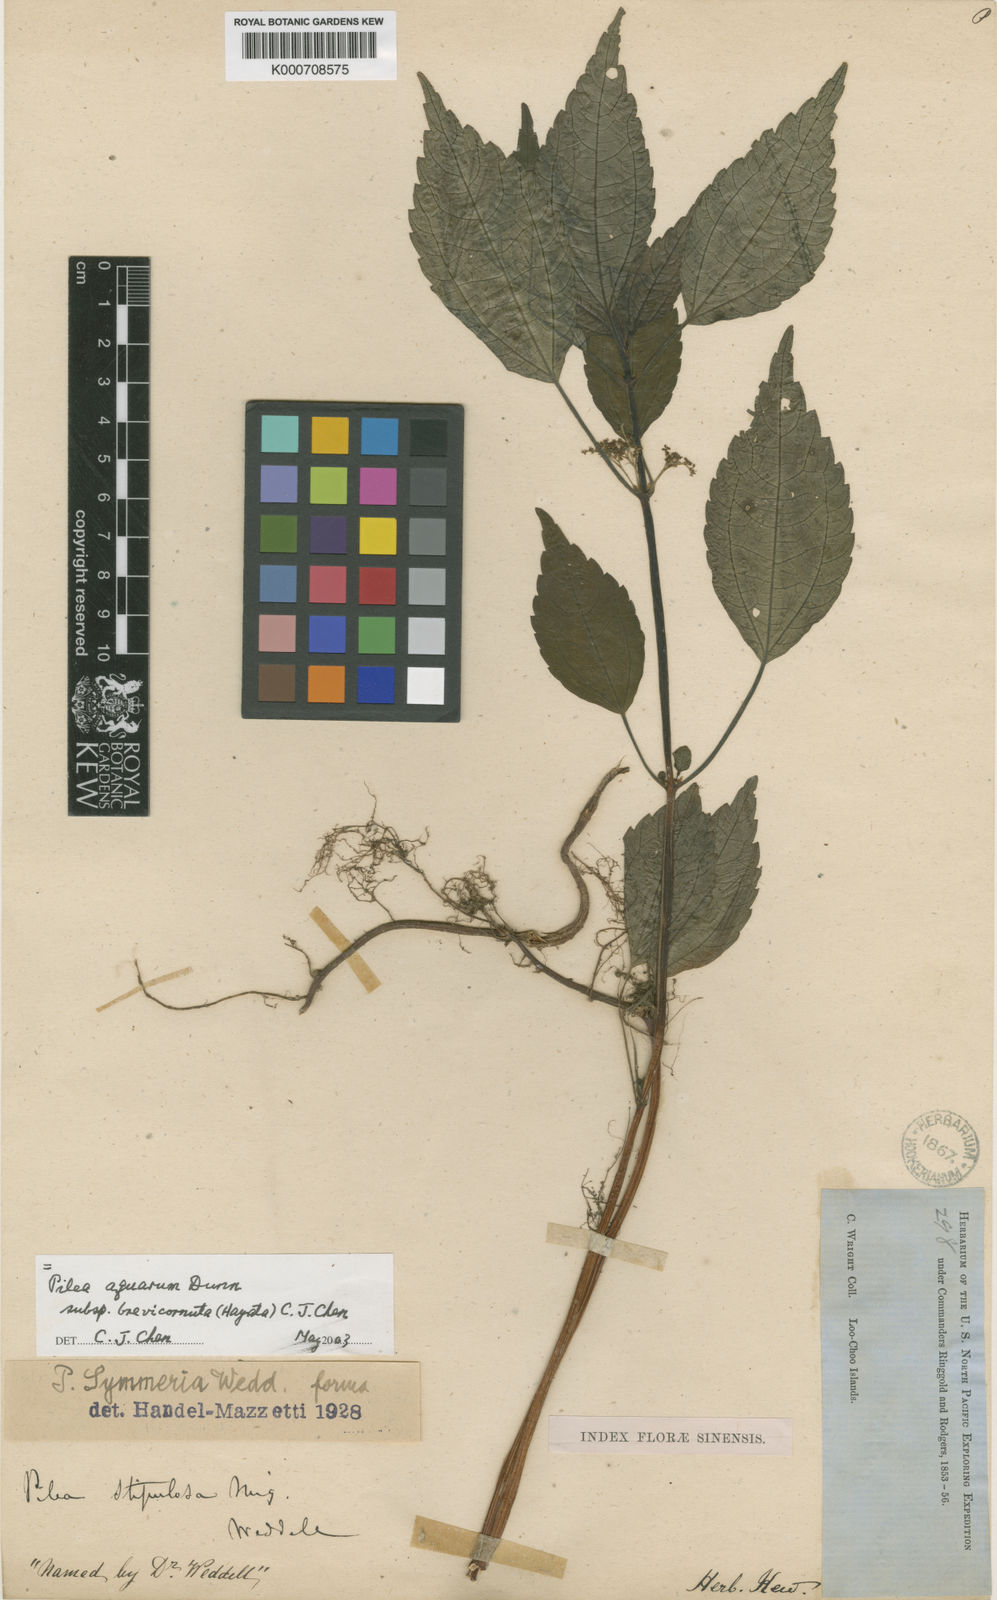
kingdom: Plantae
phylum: Tracheophyta
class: Magnoliopsida
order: Rosales
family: Urticaceae
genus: Pilea
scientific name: Pilea symmeria
